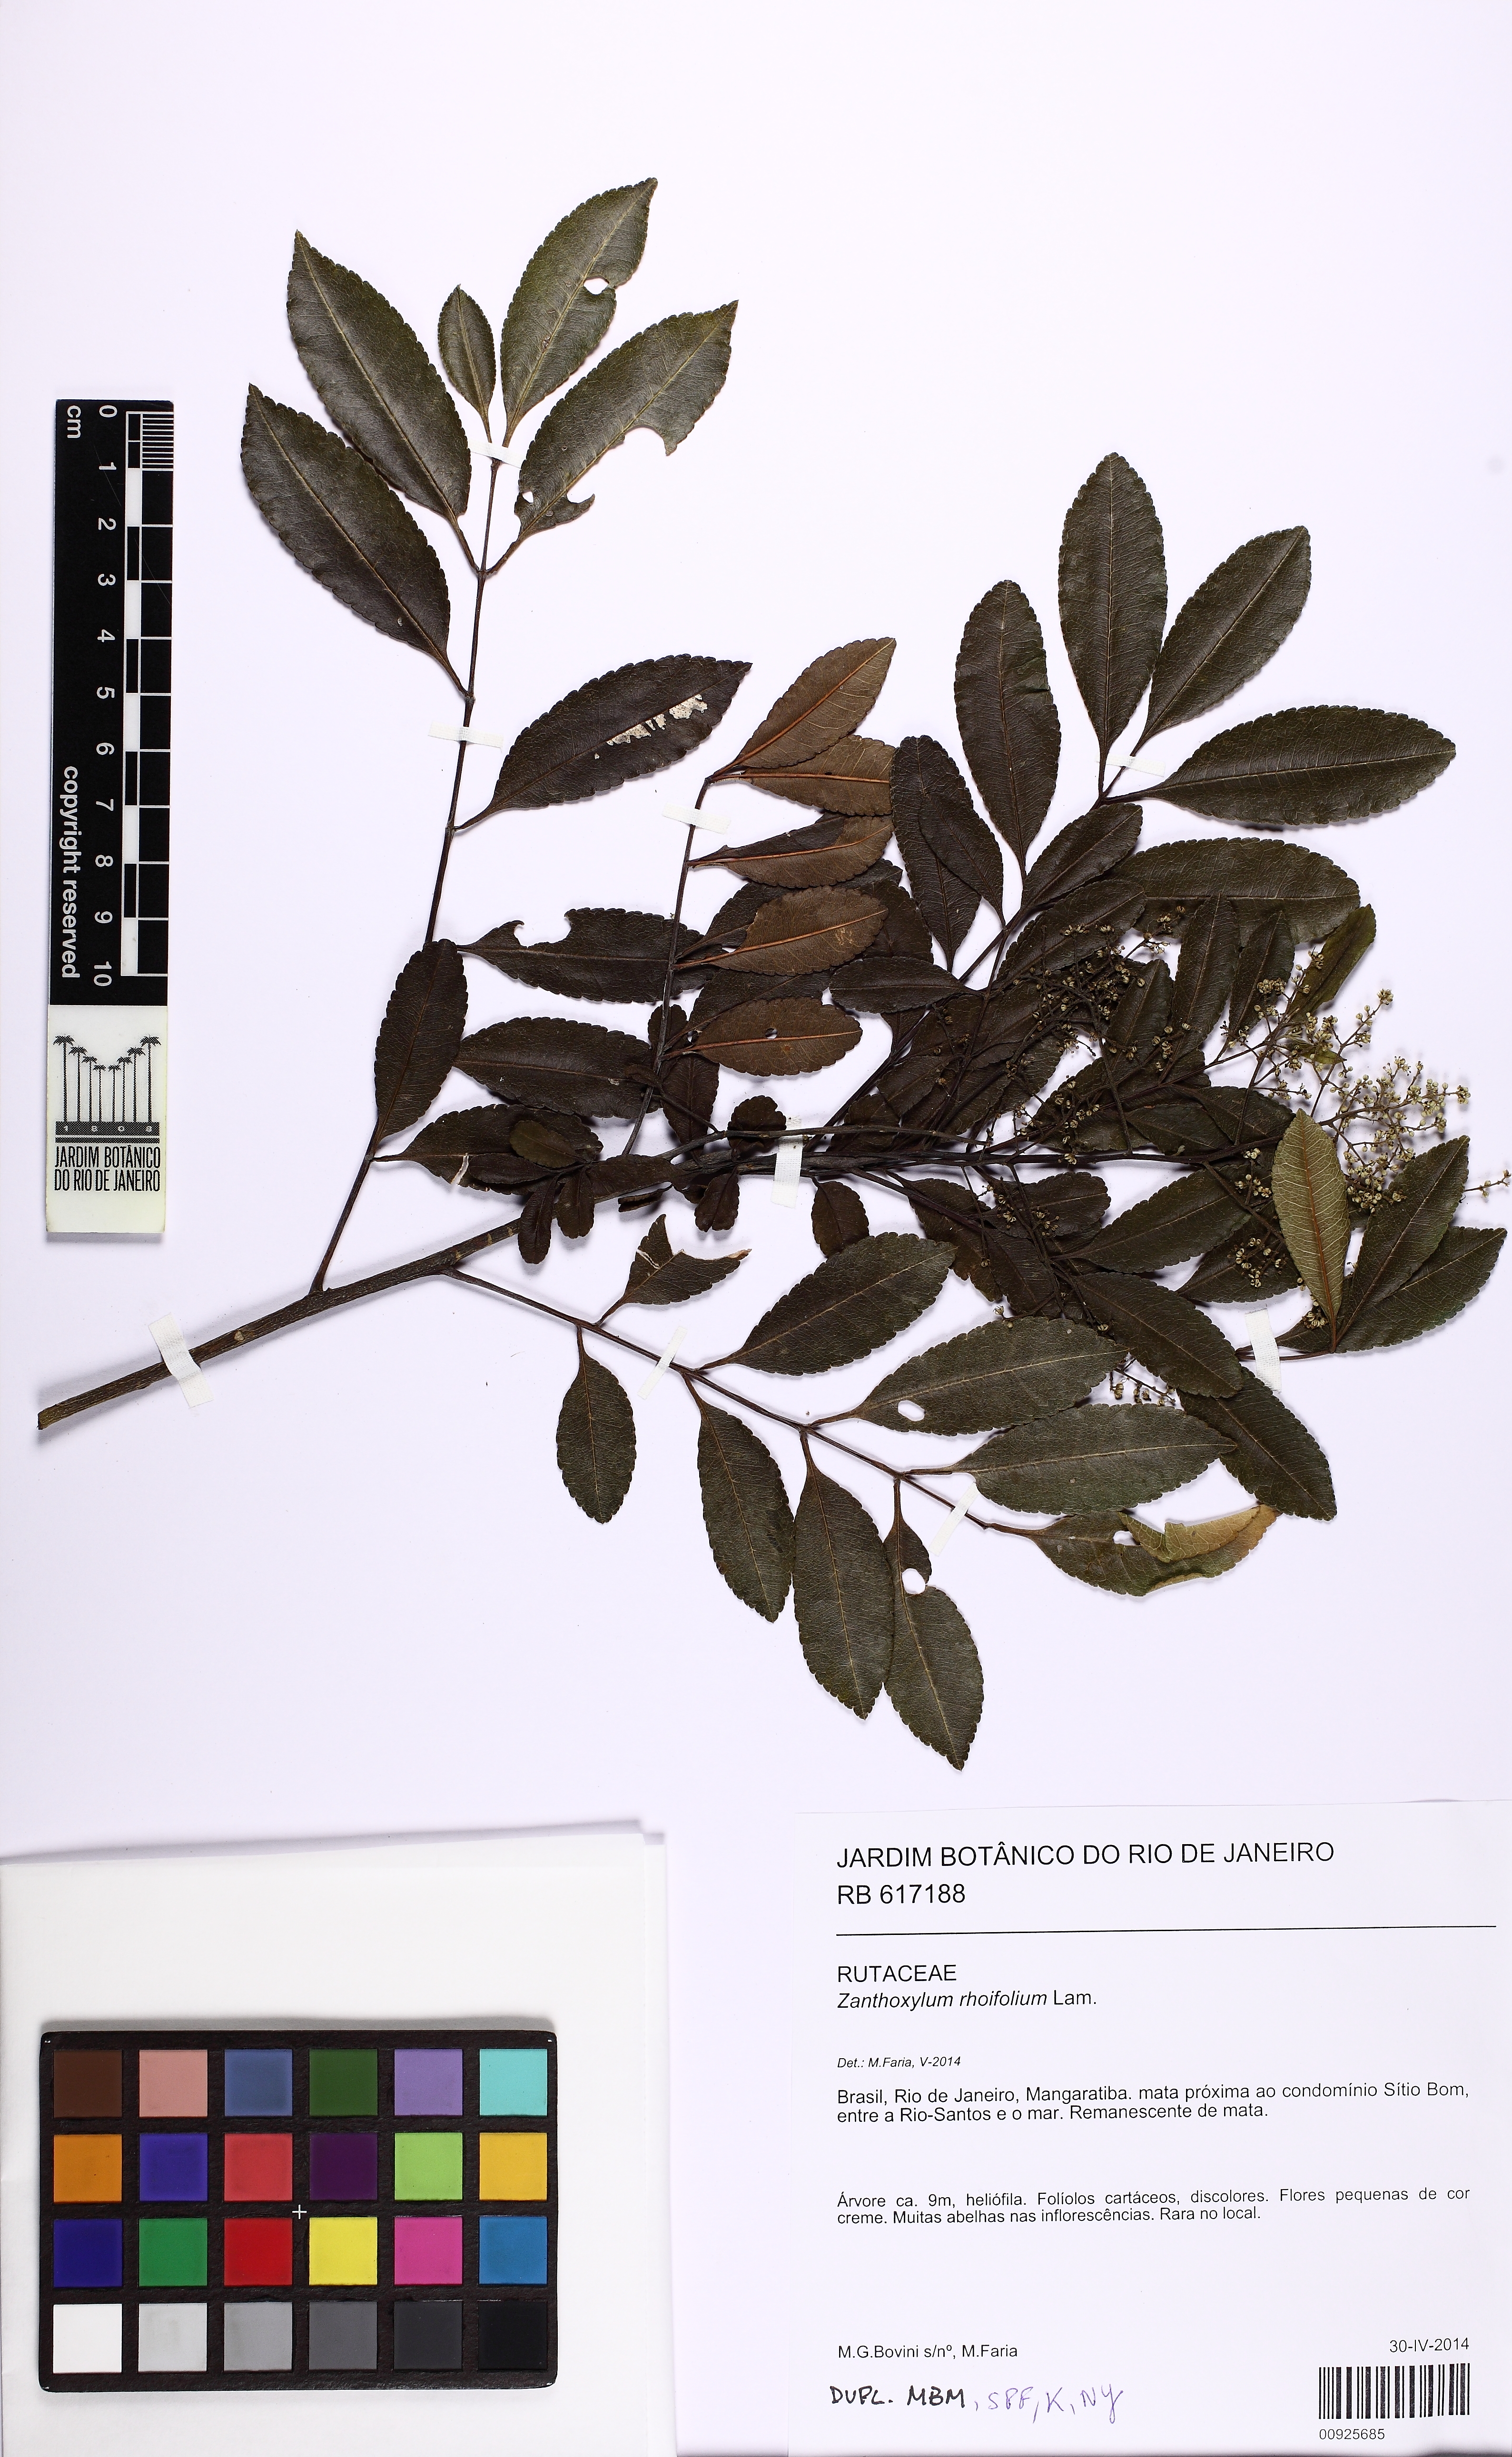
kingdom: Plantae
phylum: Tracheophyta
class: Magnoliopsida
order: Sapindales
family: Rutaceae
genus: Zanthoxylum
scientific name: Zanthoxylum rhoifolium
